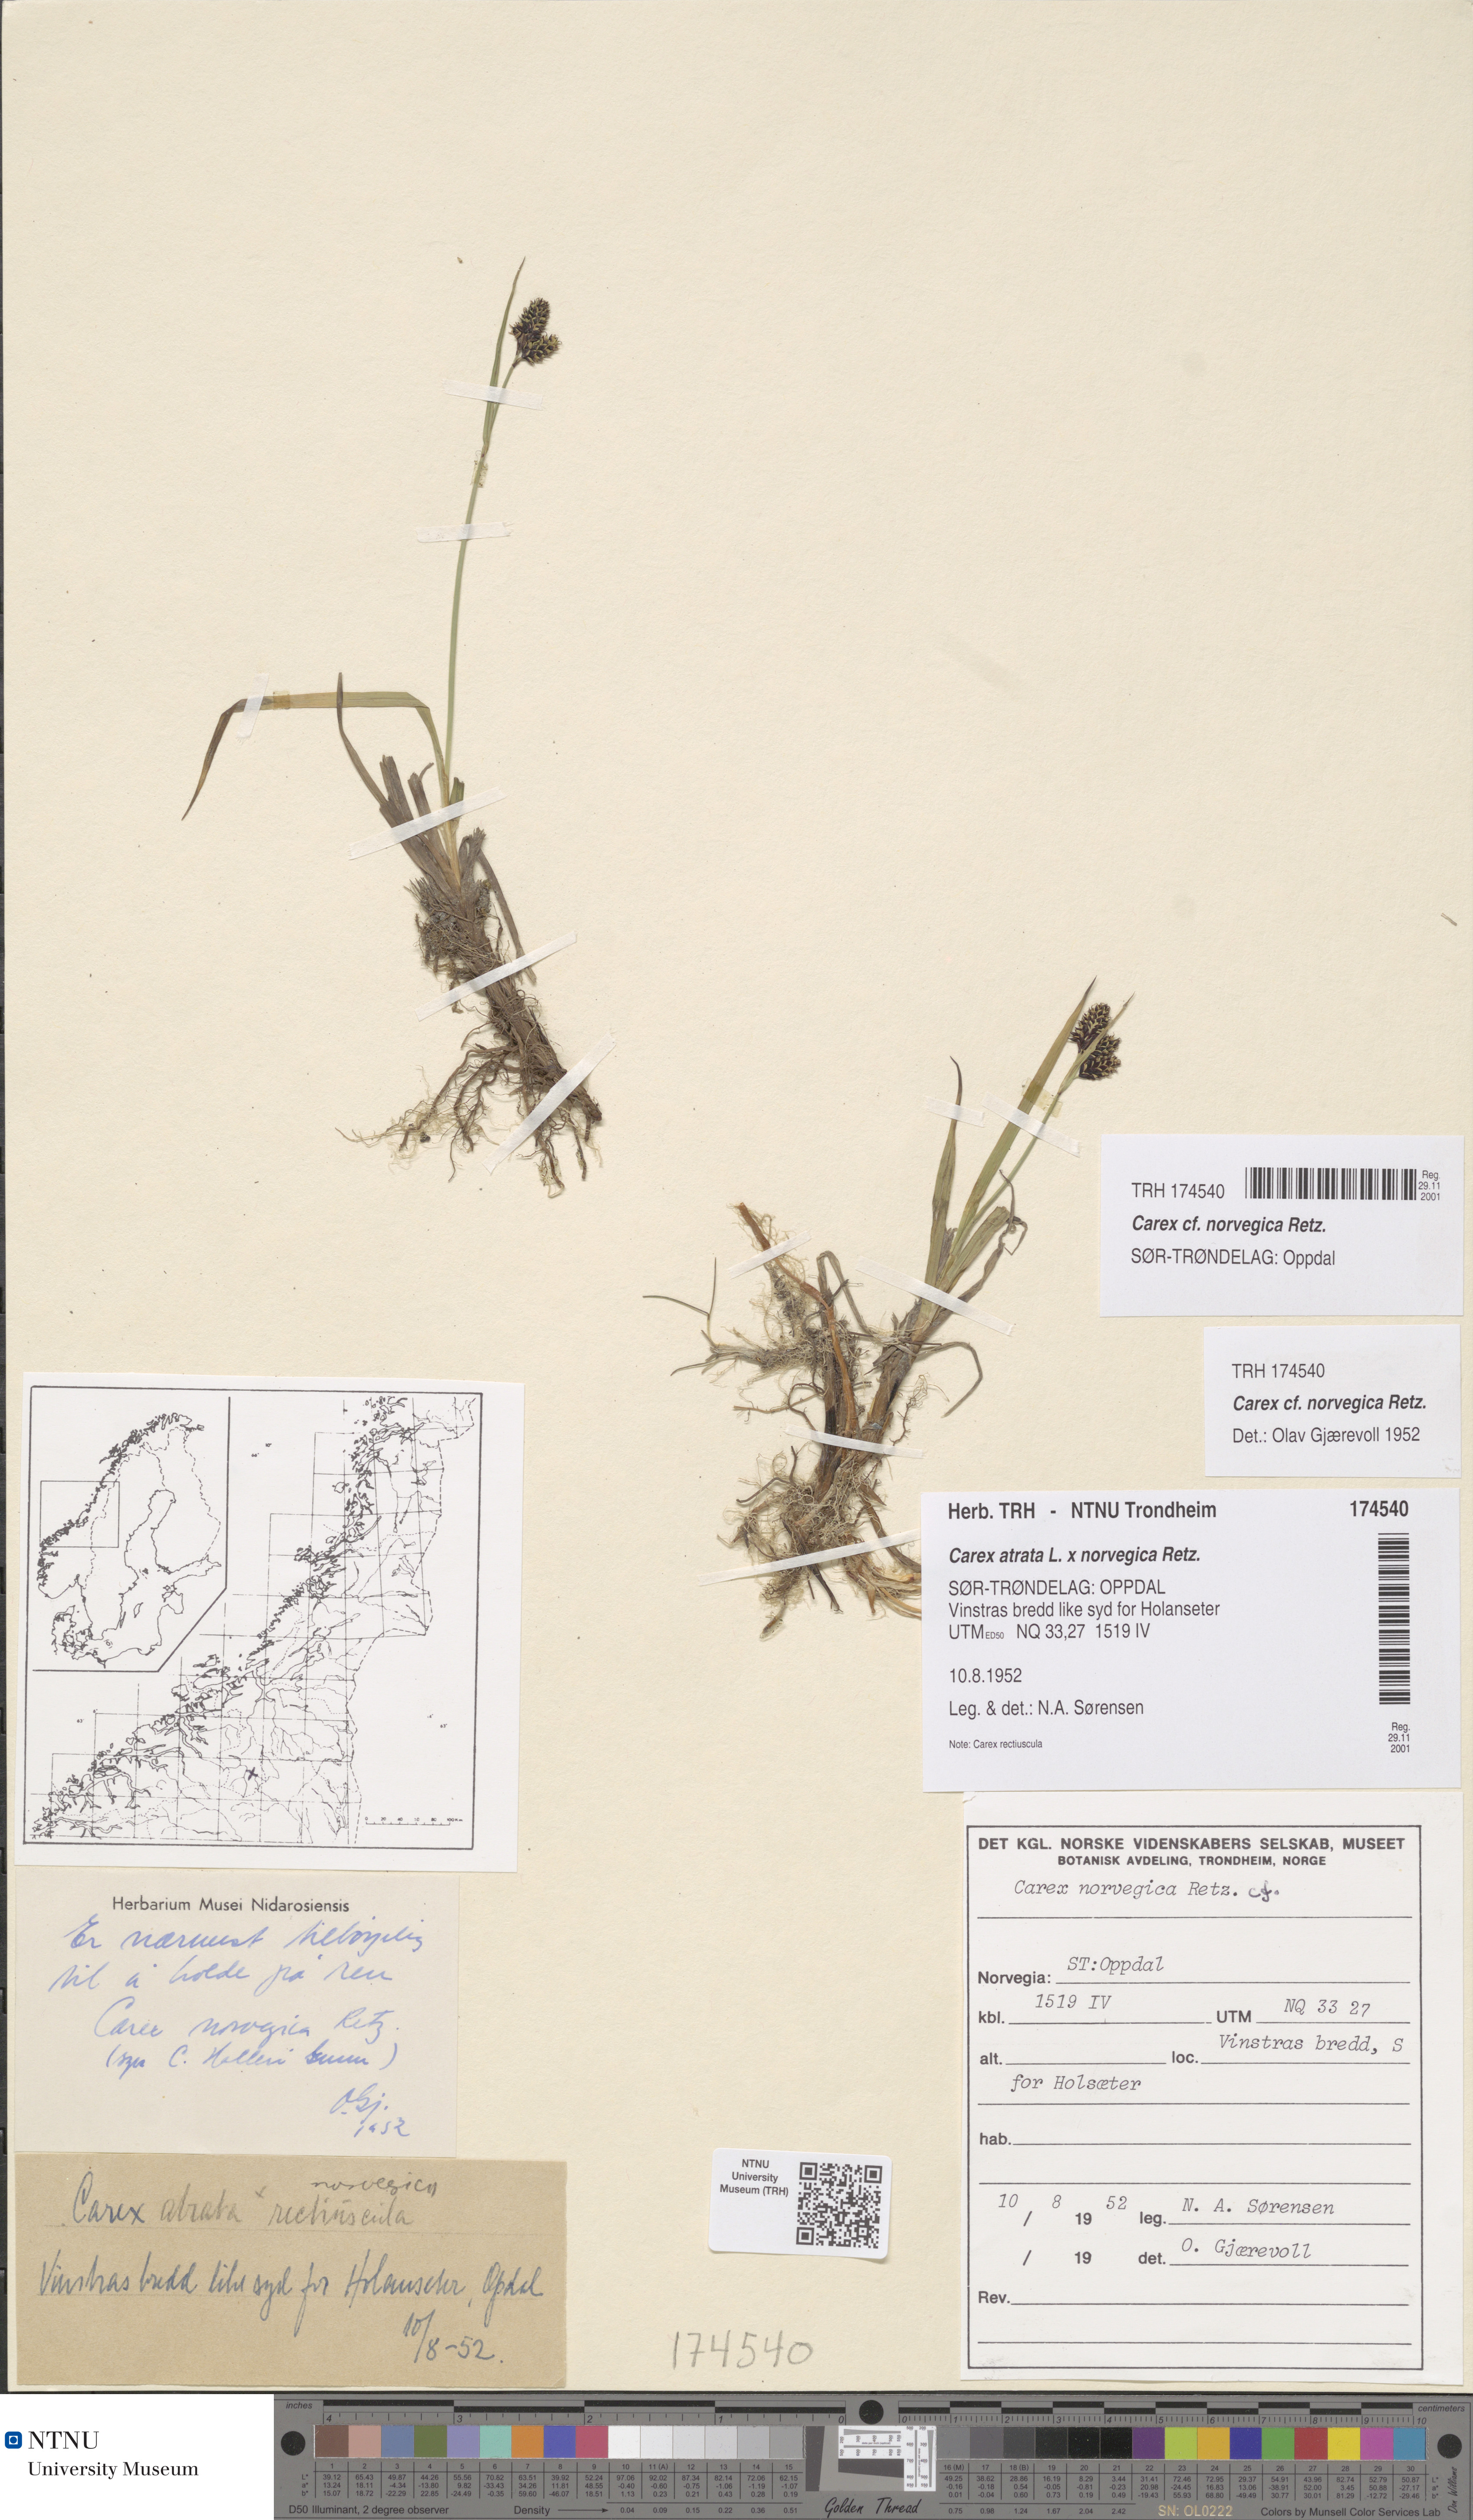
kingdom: Plantae
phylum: Tracheophyta
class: Liliopsida
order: Poales
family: Cyperaceae
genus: Carex
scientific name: Carex norvegica
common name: Close-headed alpine-sedge
